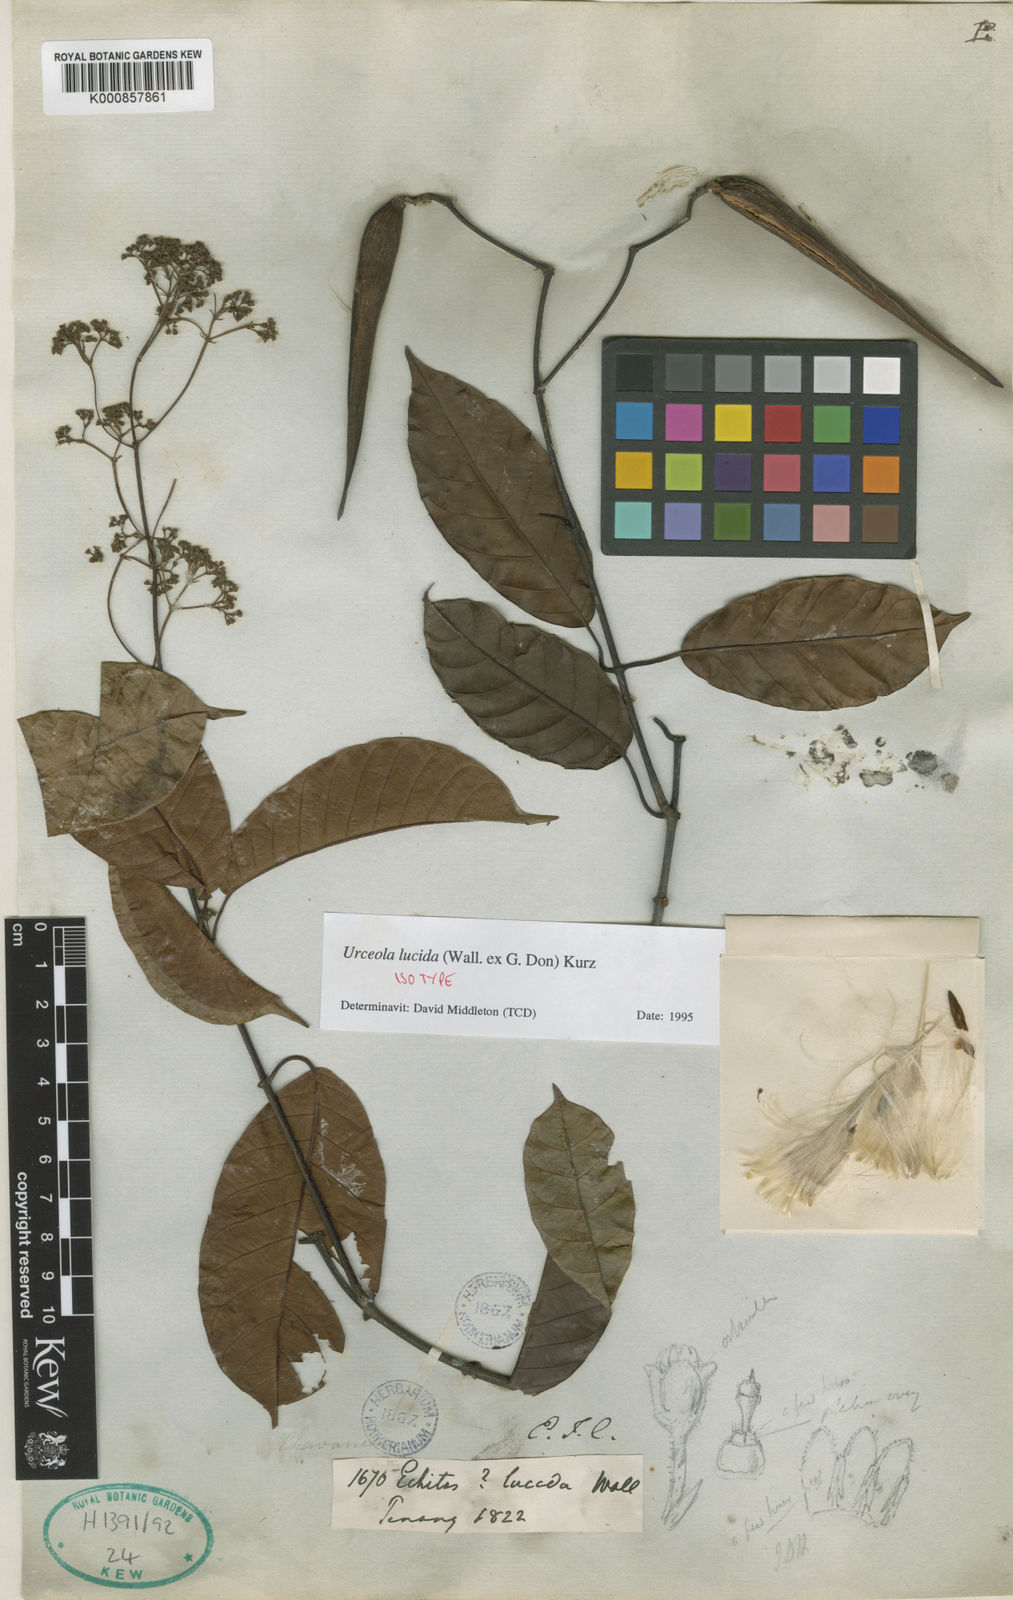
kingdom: Plantae
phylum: Tracheophyta
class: Magnoliopsida
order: Gentianales
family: Apocynaceae
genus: Urceola
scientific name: Urceola lucida
